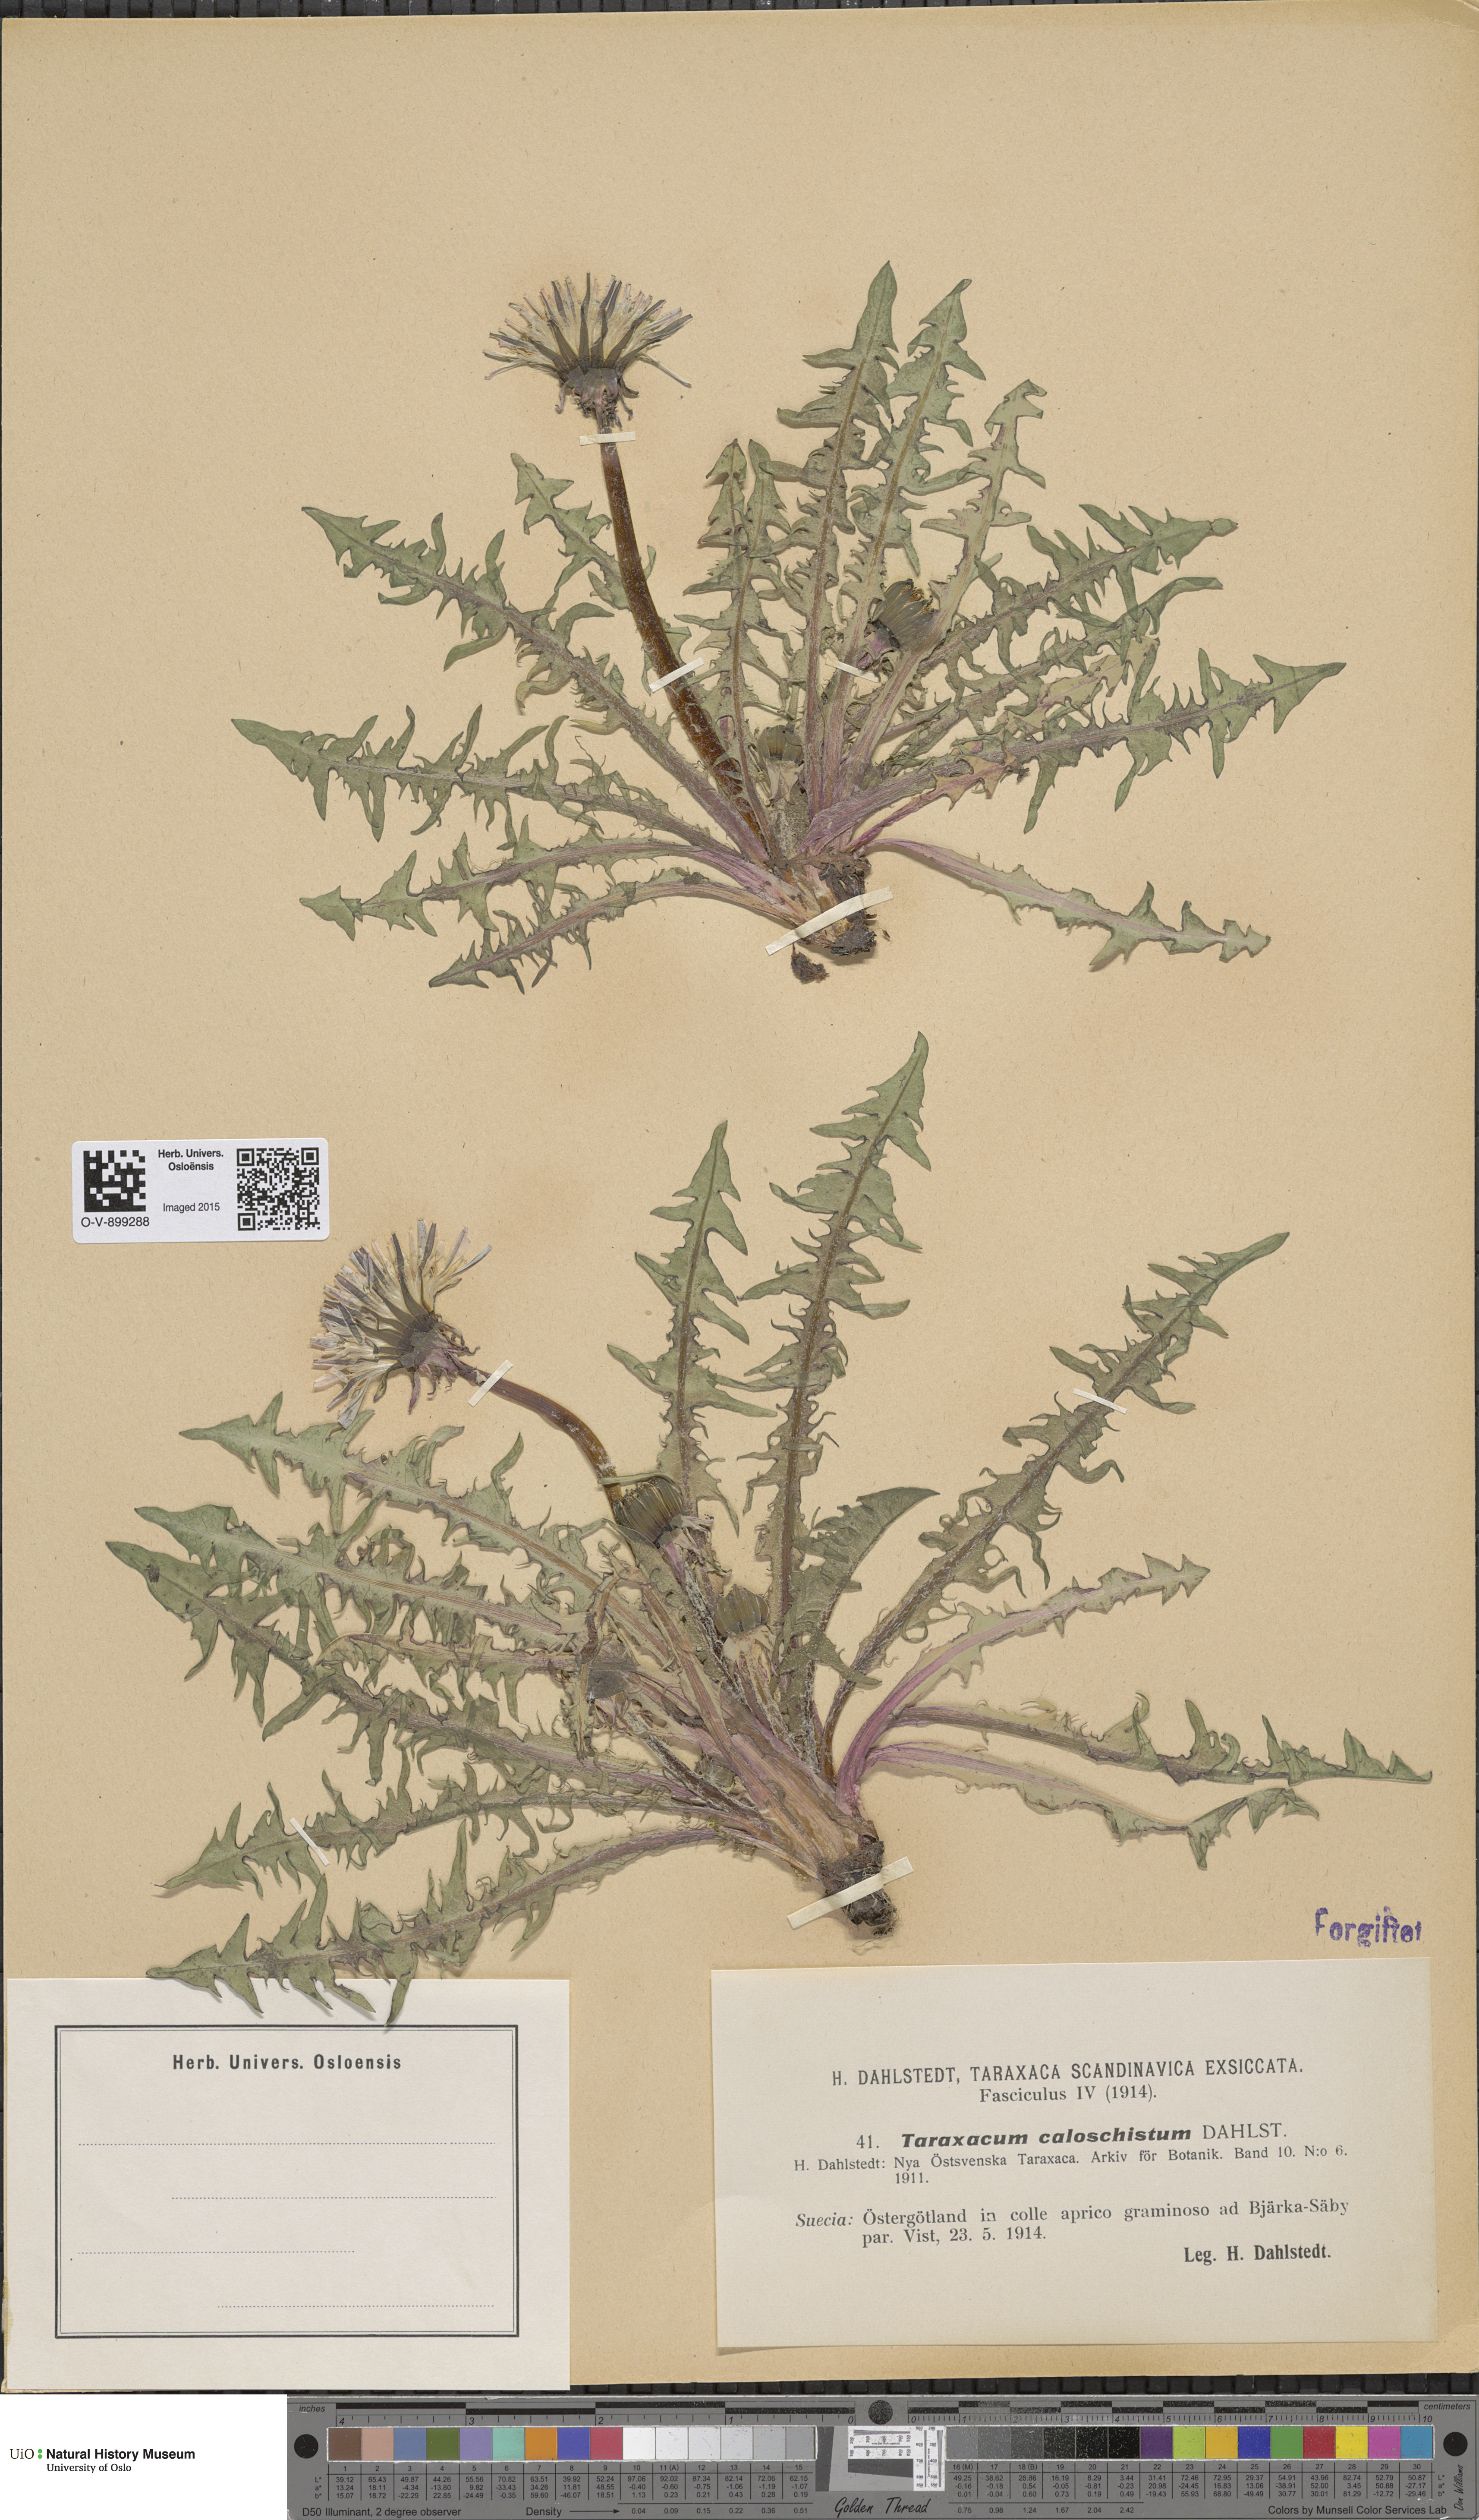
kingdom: Plantae
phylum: Tracheophyta
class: Magnoliopsida
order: Asterales
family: Asteraceae
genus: Taraxacum
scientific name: Taraxacum caloschistum
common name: Brilliant-stalked dandelion
